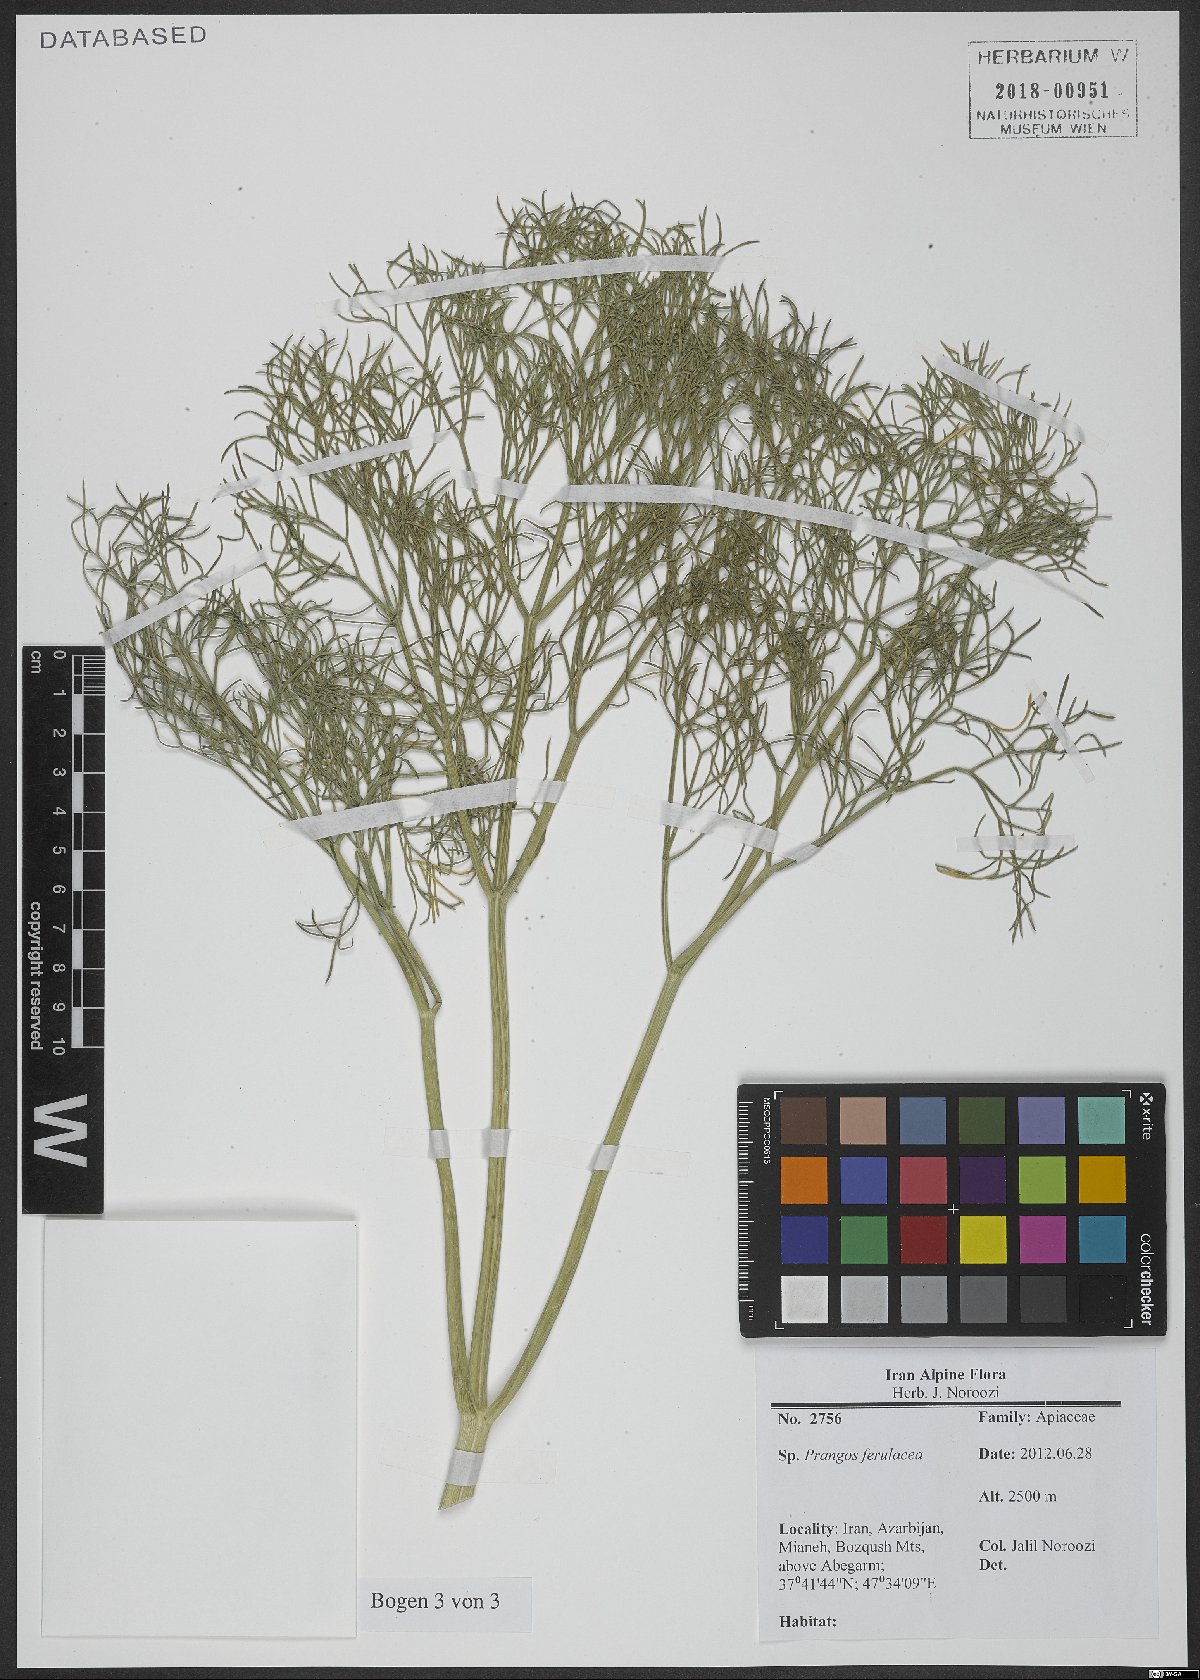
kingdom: Plantae
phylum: Tracheophyta
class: Magnoliopsida
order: Apiales
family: Apiaceae
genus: Prangos
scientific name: Prangos ferulacea
